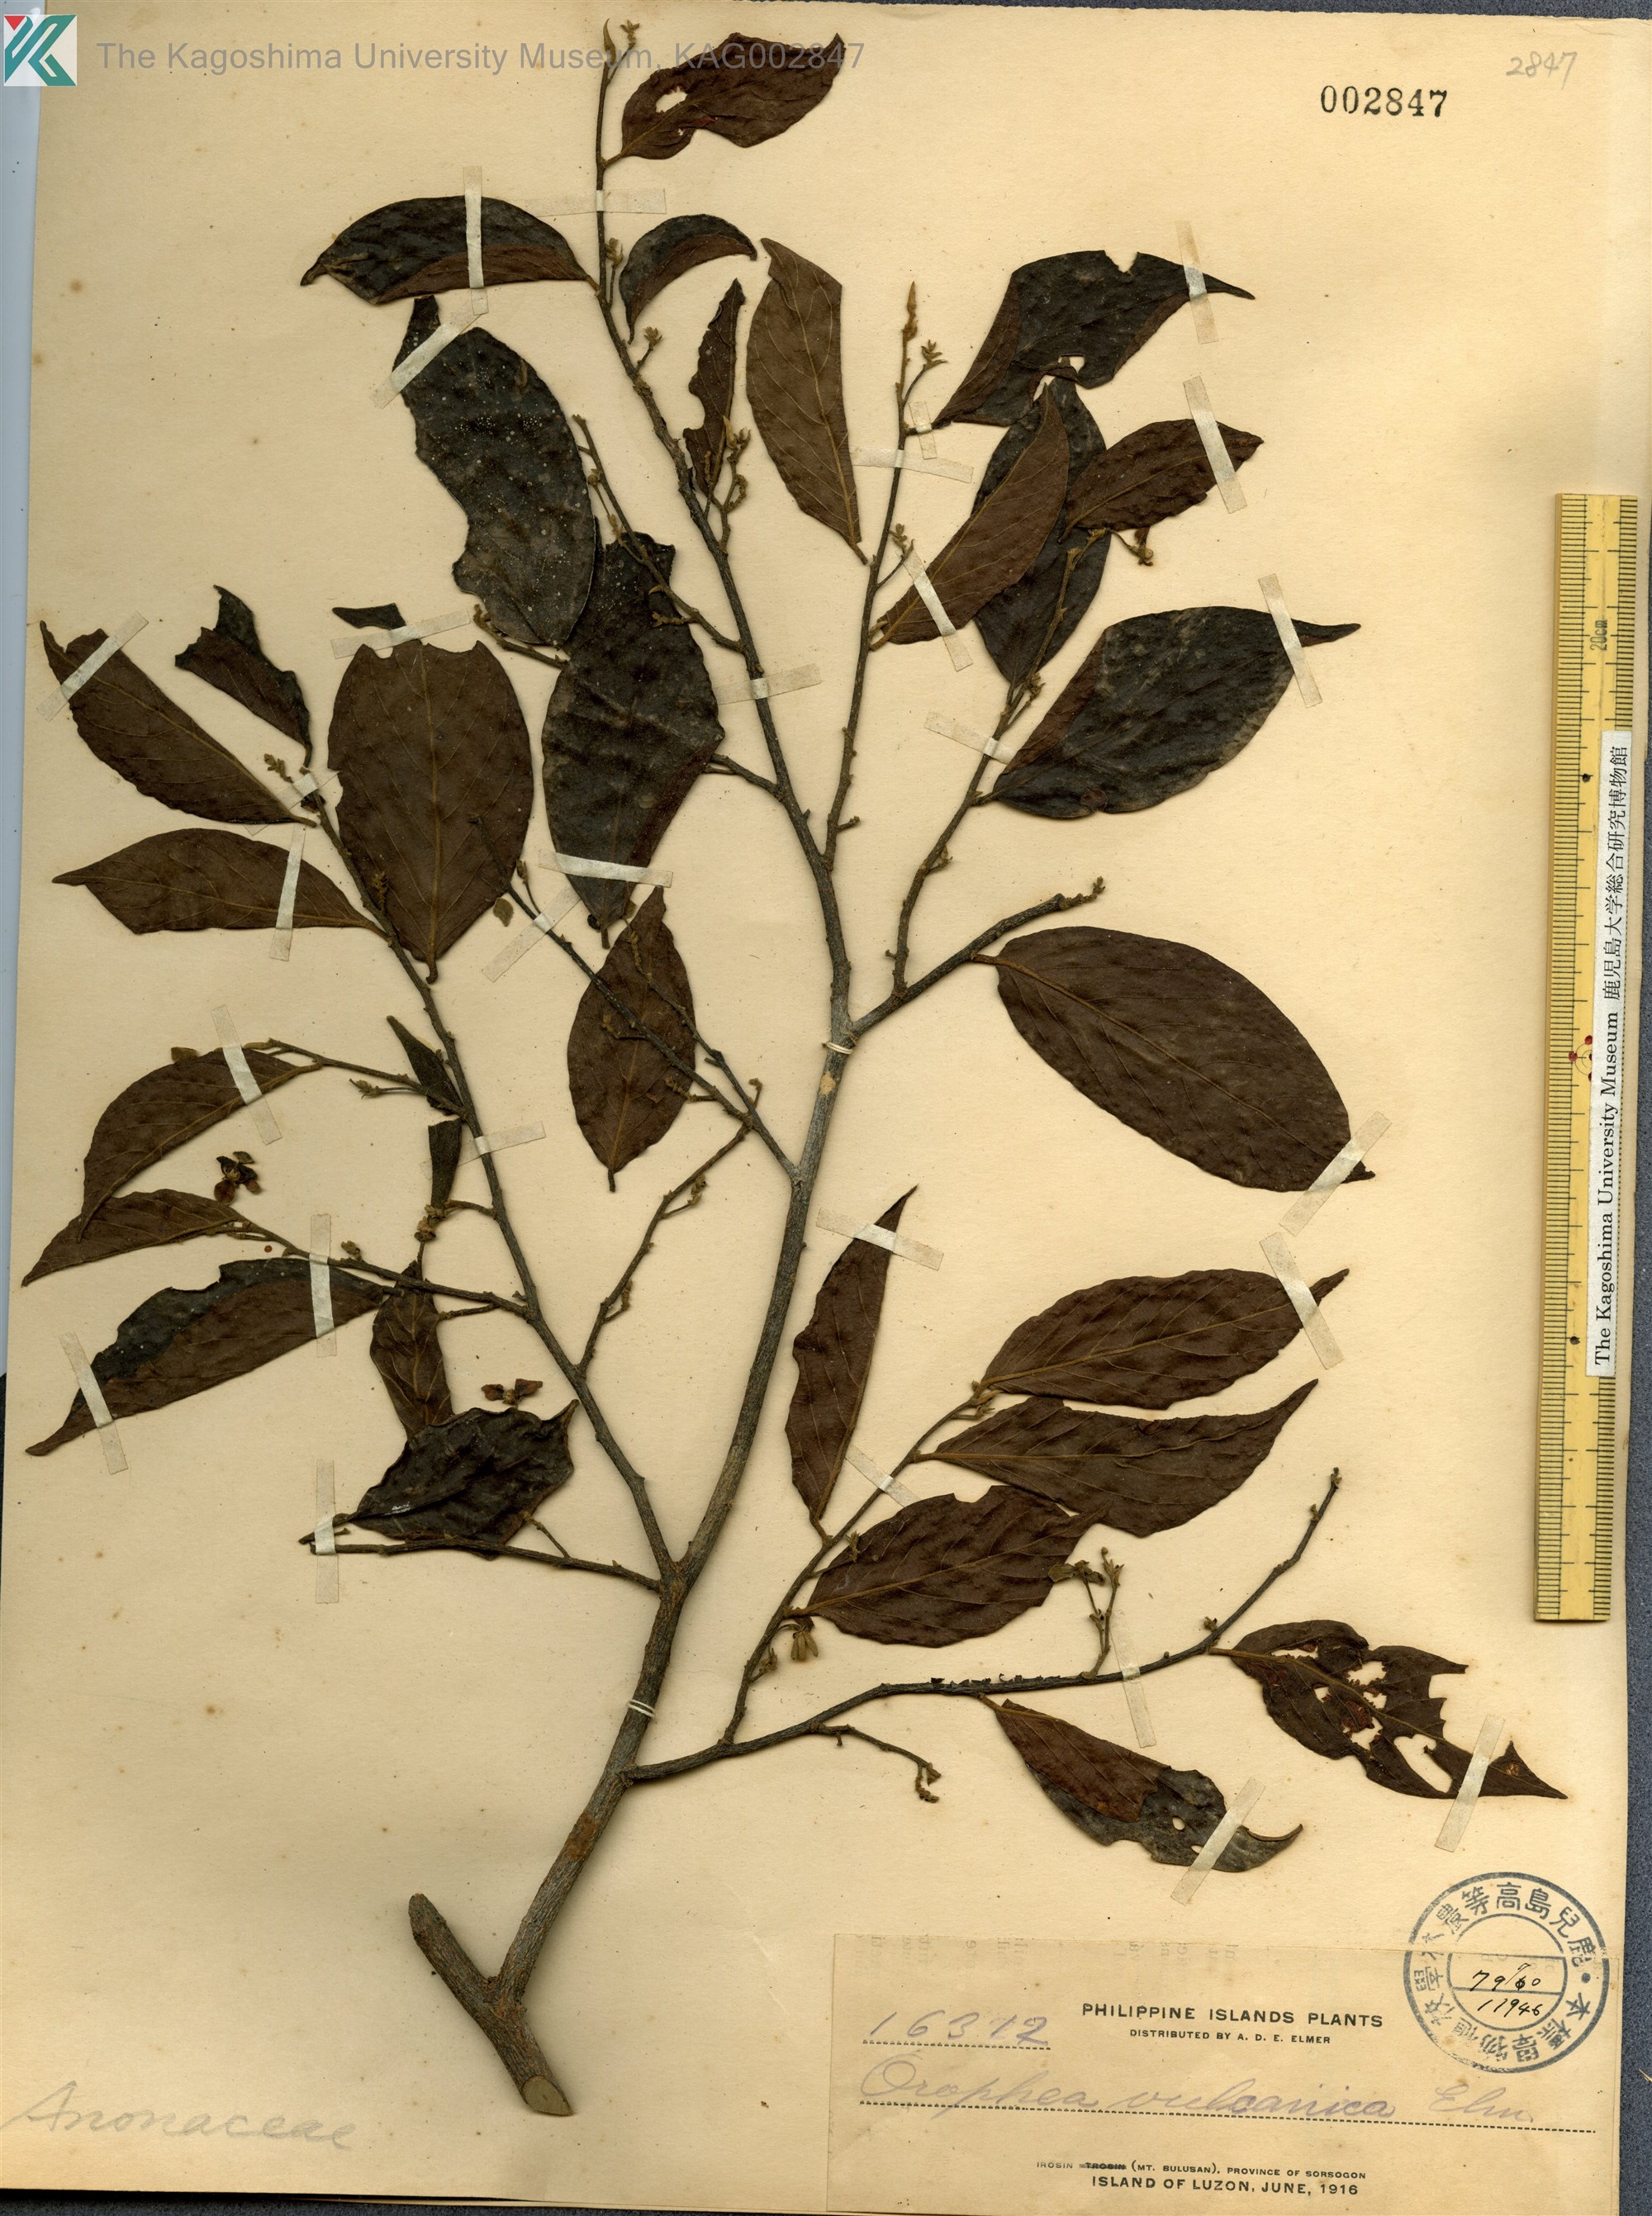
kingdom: Plantae
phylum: Tracheophyta
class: Magnoliopsida
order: Magnoliales
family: Annonaceae
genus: Orophea
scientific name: Orophea cumingiana
